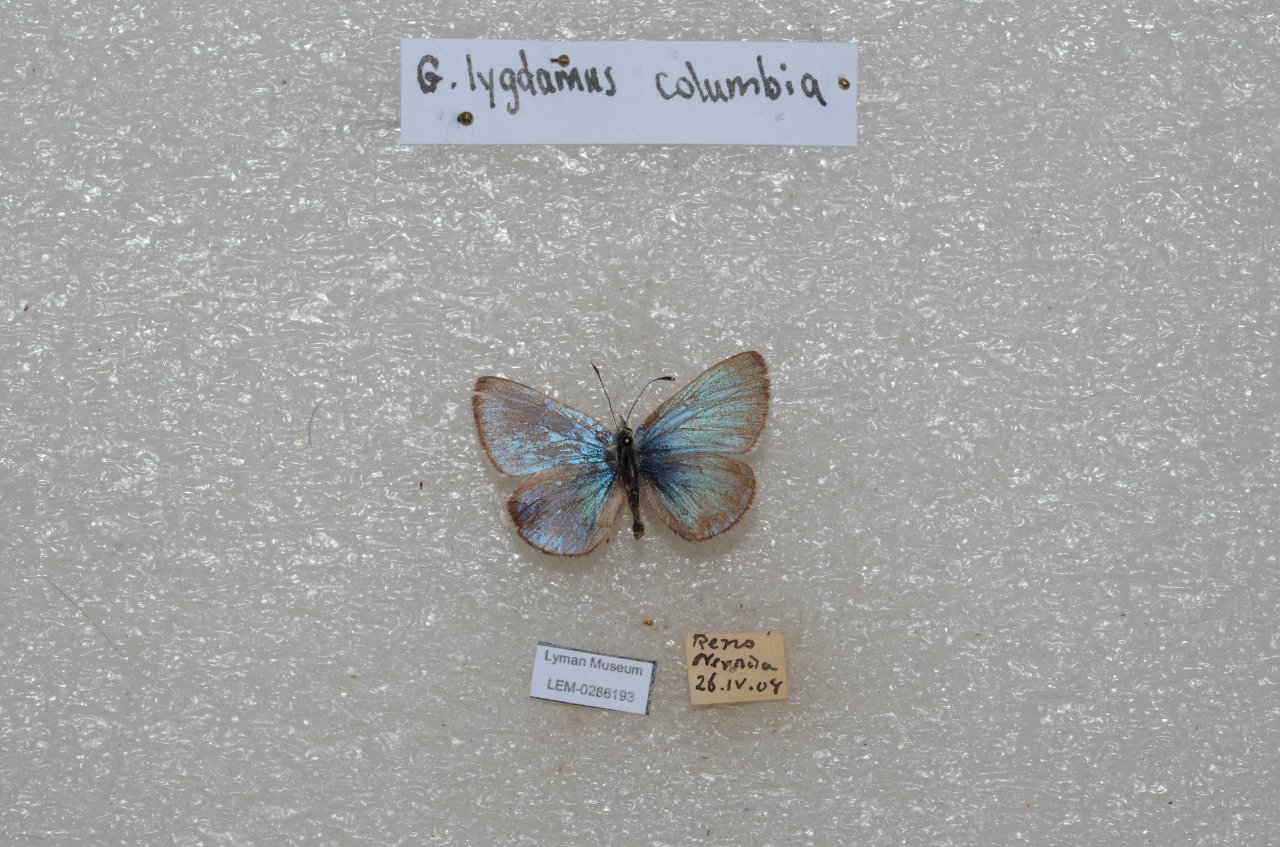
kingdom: Animalia
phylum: Arthropoda
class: Insecta
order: Lepidoptera
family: Lycaenidae
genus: Glaucopsyche
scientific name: Glaucopsyche lygdamus
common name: Silvery Blue
